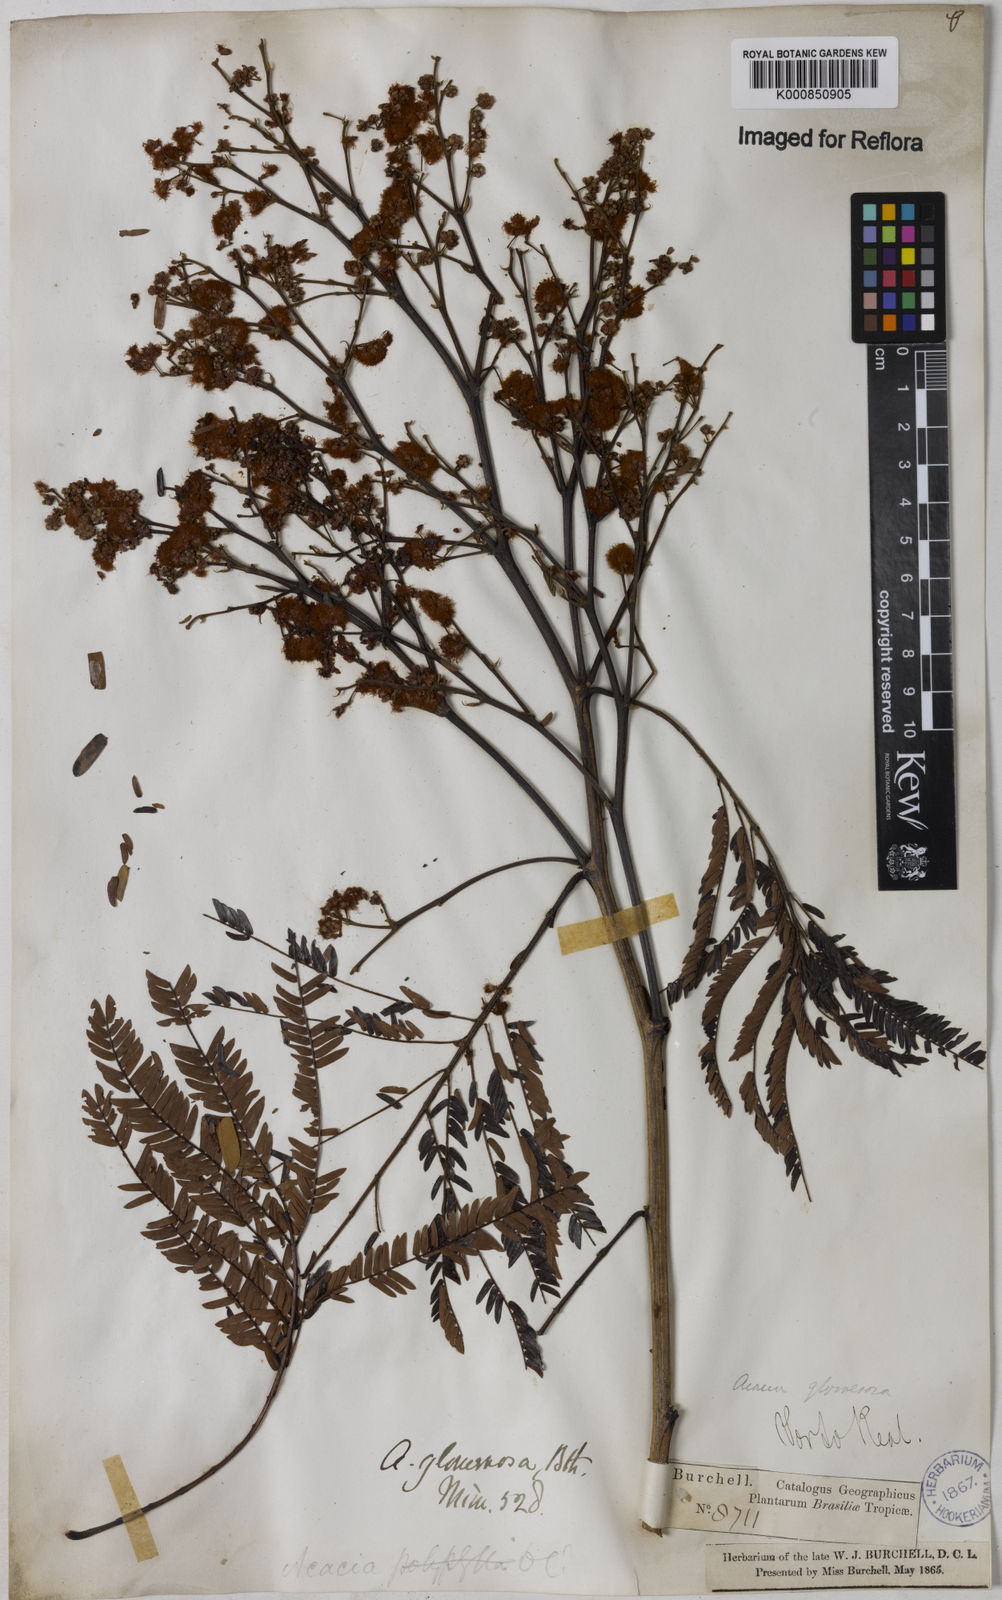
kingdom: Plantae
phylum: Tracheophyta
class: Magnoliopsida
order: Fabales
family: Fabaceae
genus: Senegalia
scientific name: Senegalia polyphylla
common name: White-tamarind
